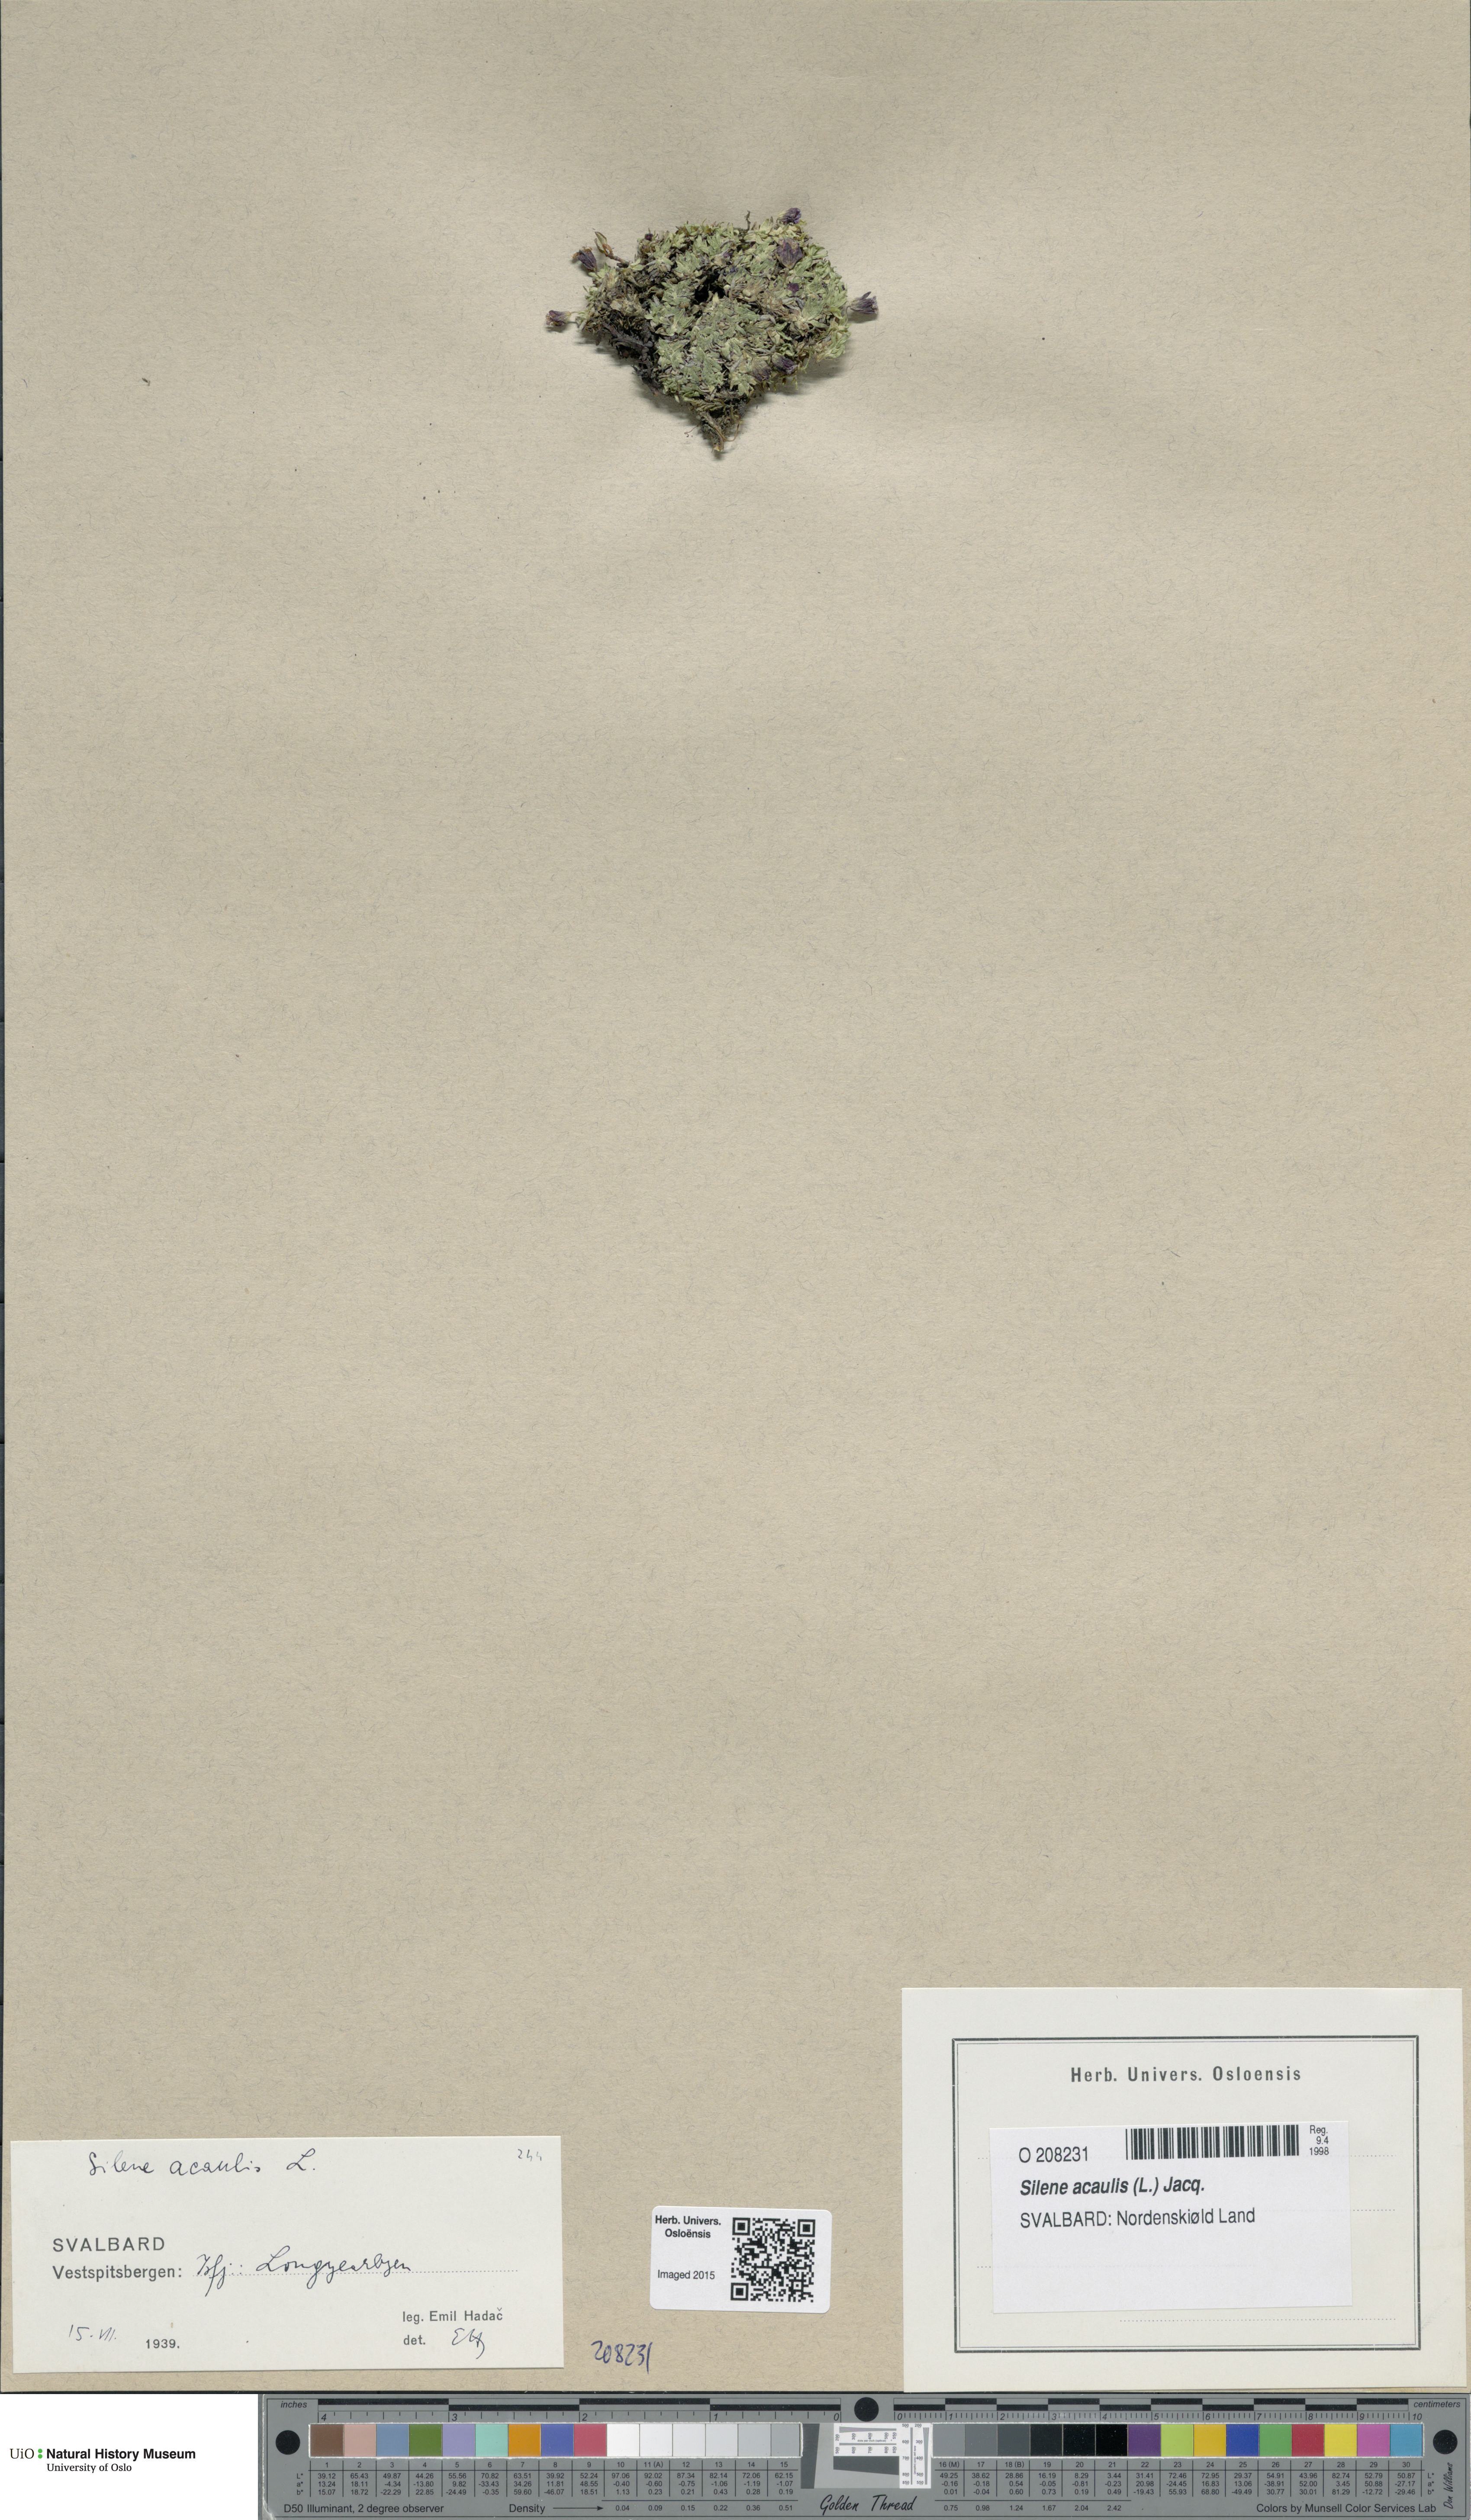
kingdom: Plantae
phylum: Tracheophyta
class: Magnoliopsida
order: Caryophyllales
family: Caryophyllaceae
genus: Silene
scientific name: Silene acaulis
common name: Moss campion
